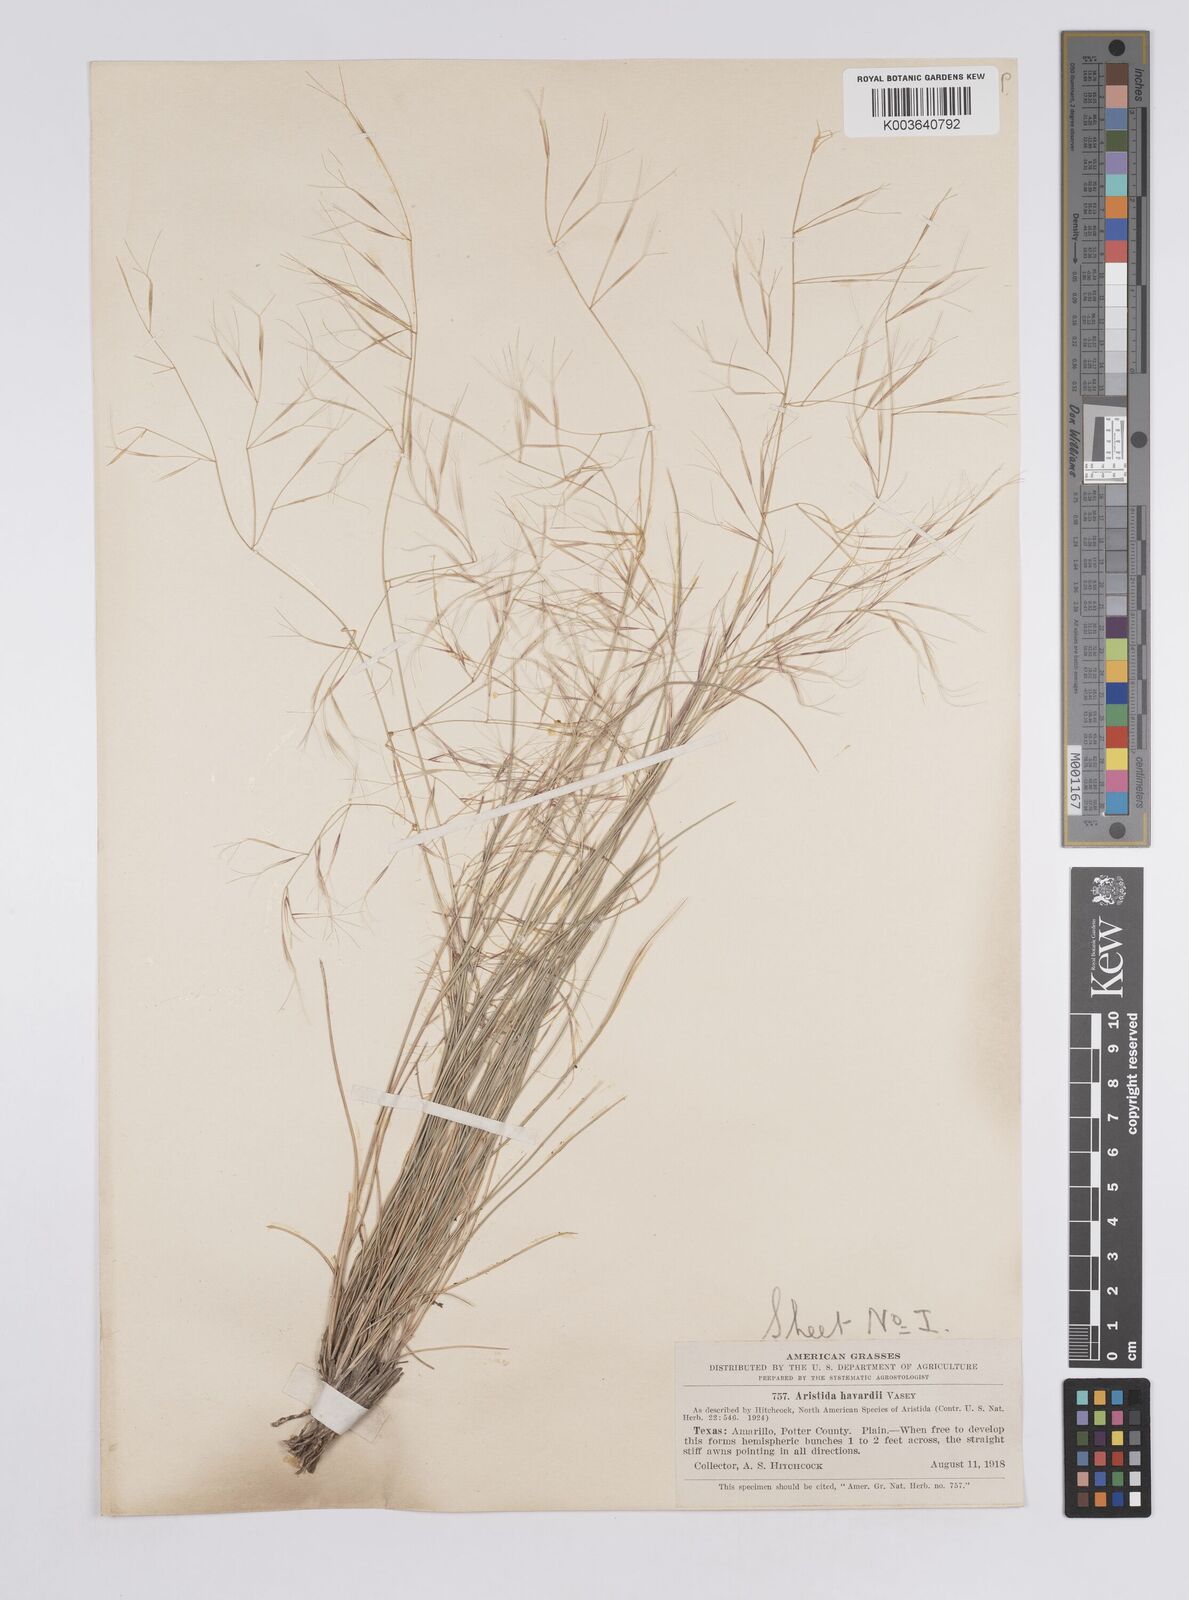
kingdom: Plantae
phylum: Tracheophyta
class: Liliopsida
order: Poales
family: Poaceae
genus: Aristida
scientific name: Aristida havardii
